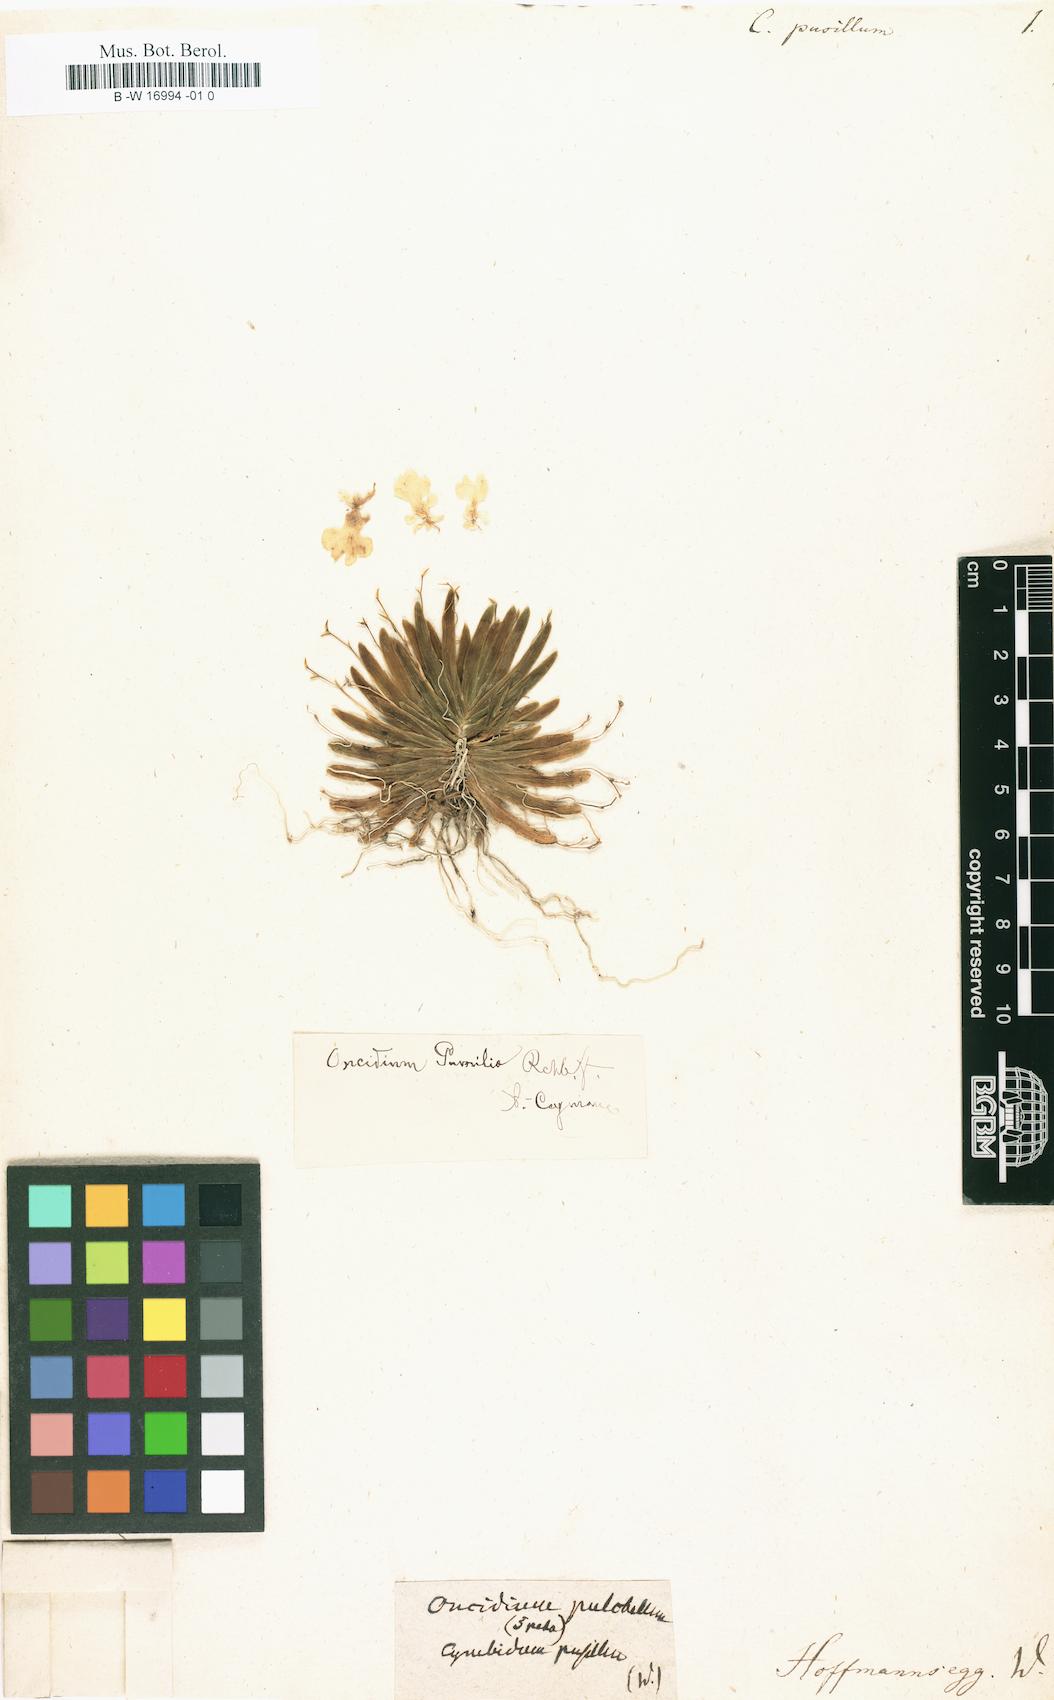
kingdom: Plantae
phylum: Tracheophyta
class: Liliopsida
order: Asparagales
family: Orchidaceae
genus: Erycina
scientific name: Erycina pusilla
